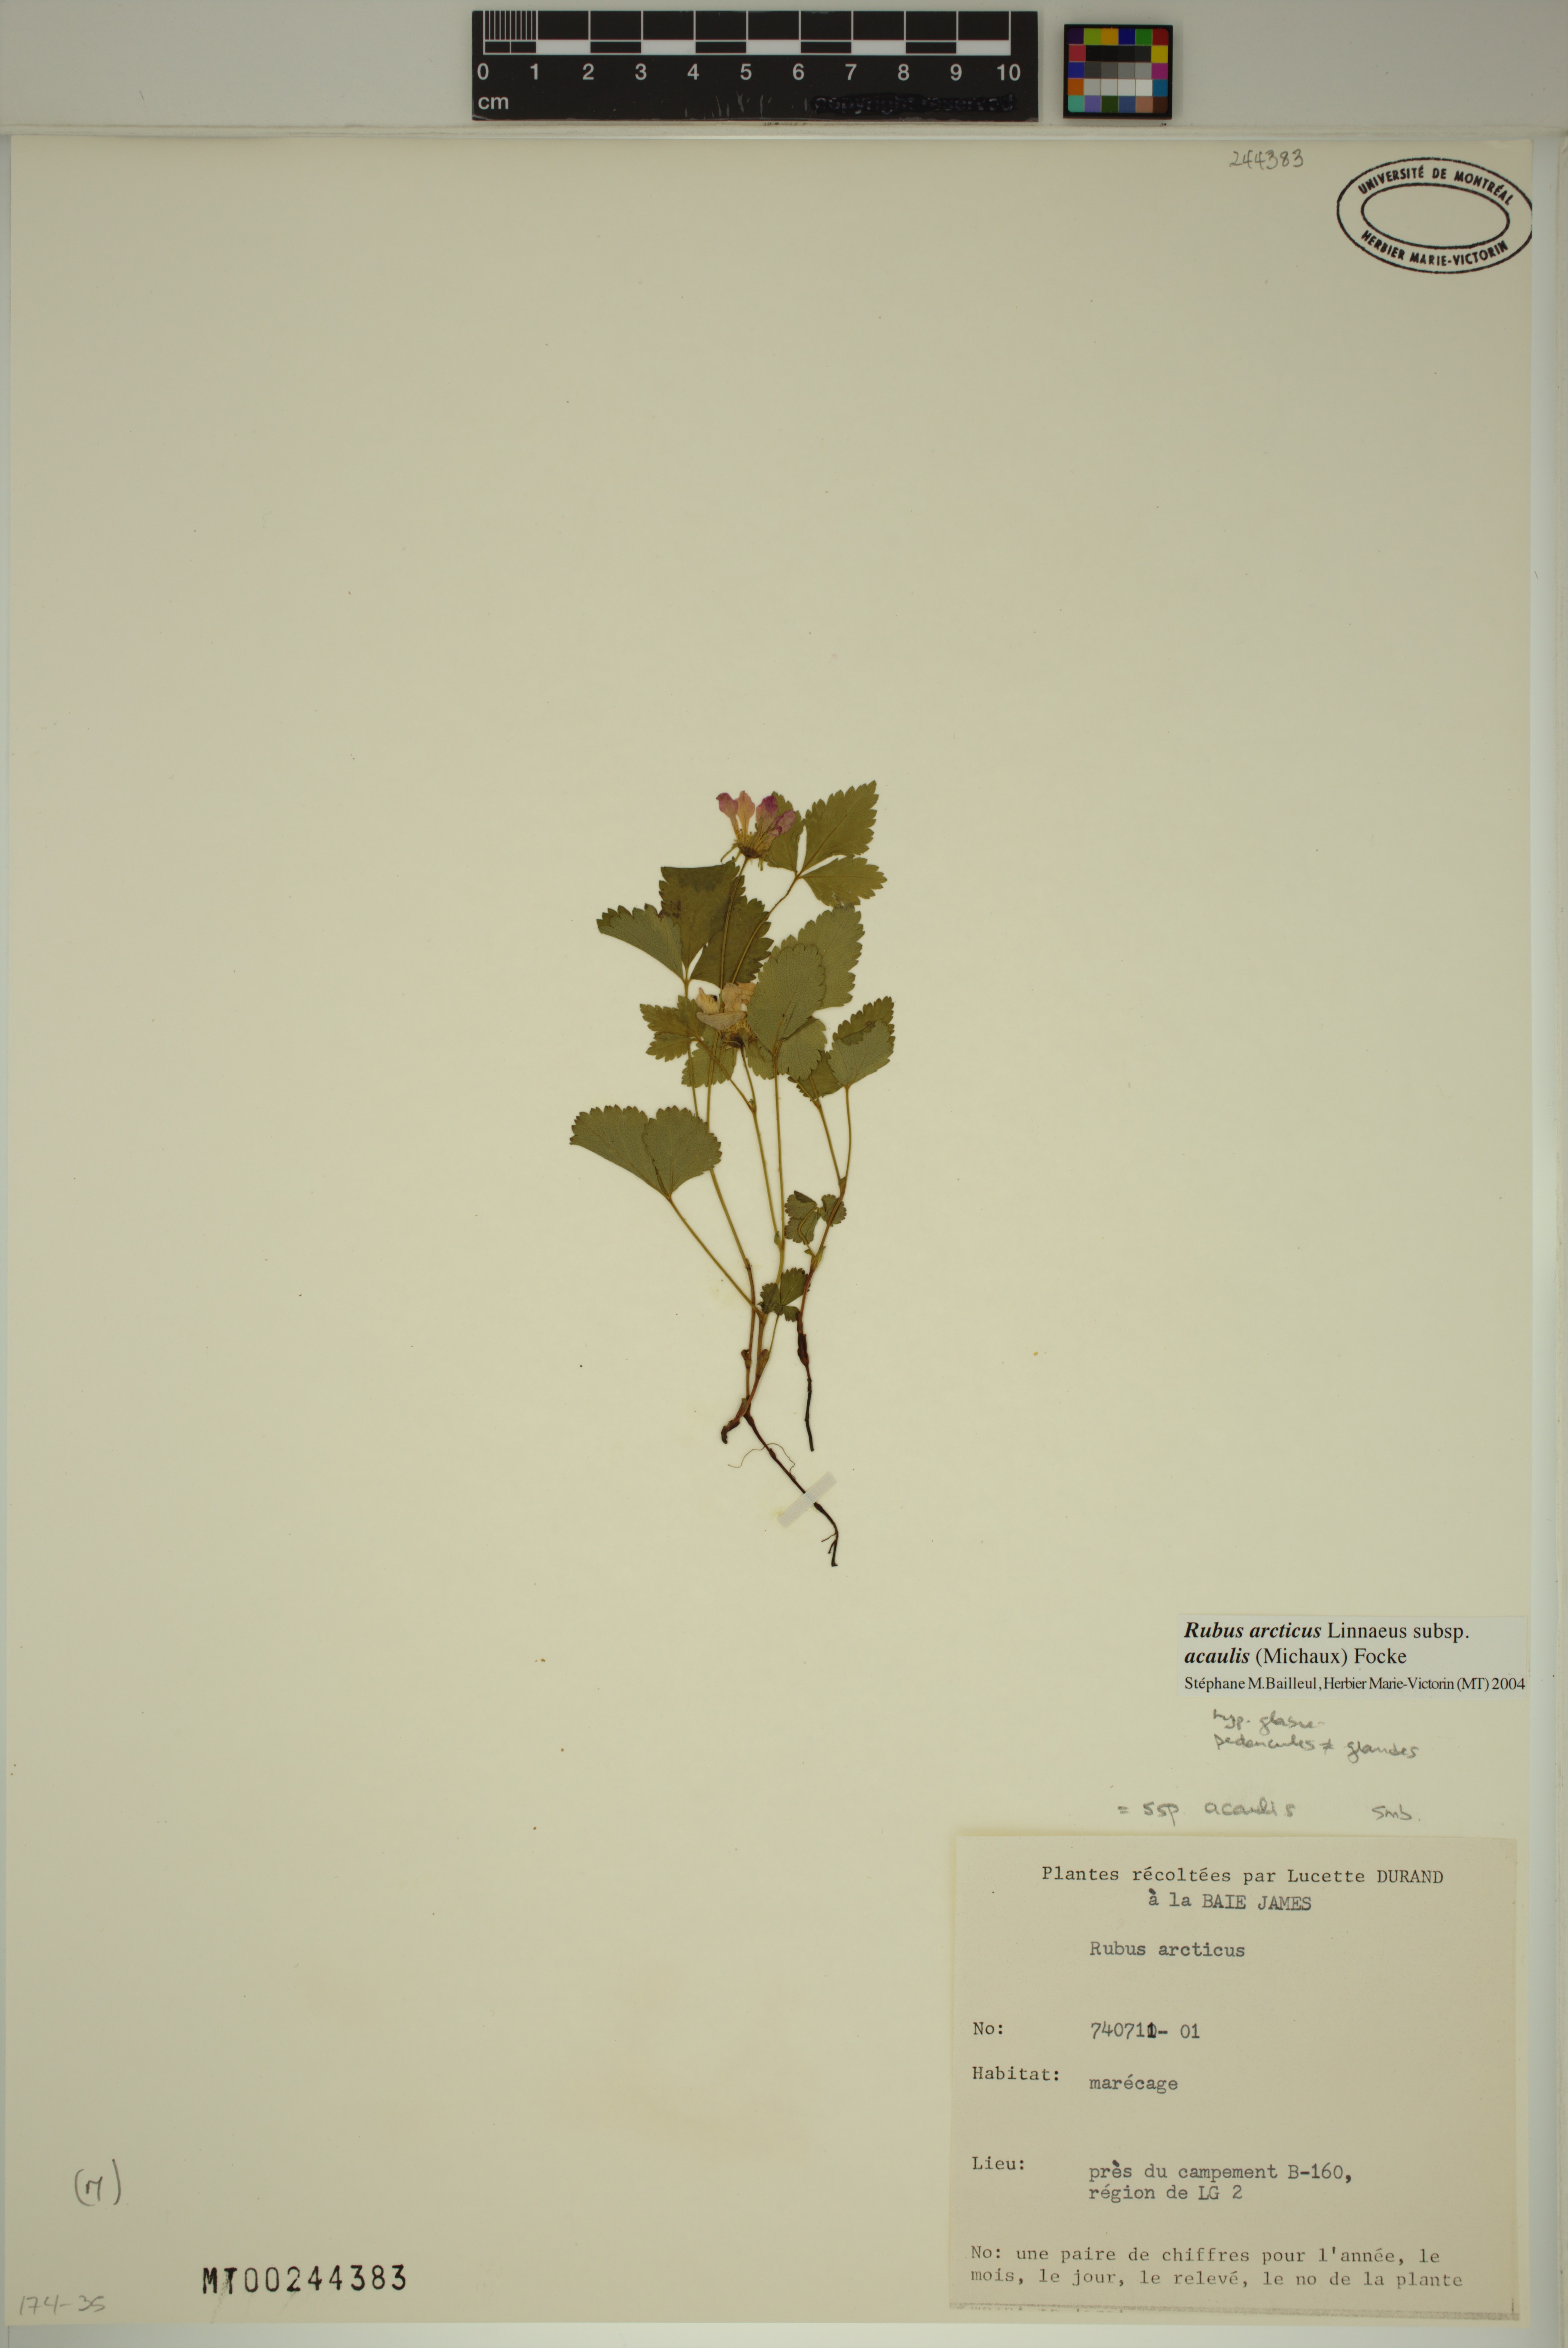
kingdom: Plantae
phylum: Tracheophyta
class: Magnoliopsida
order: Rosales
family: Rosaceae
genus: Rubus
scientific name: Rubus arcticus
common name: Arctic bramble
